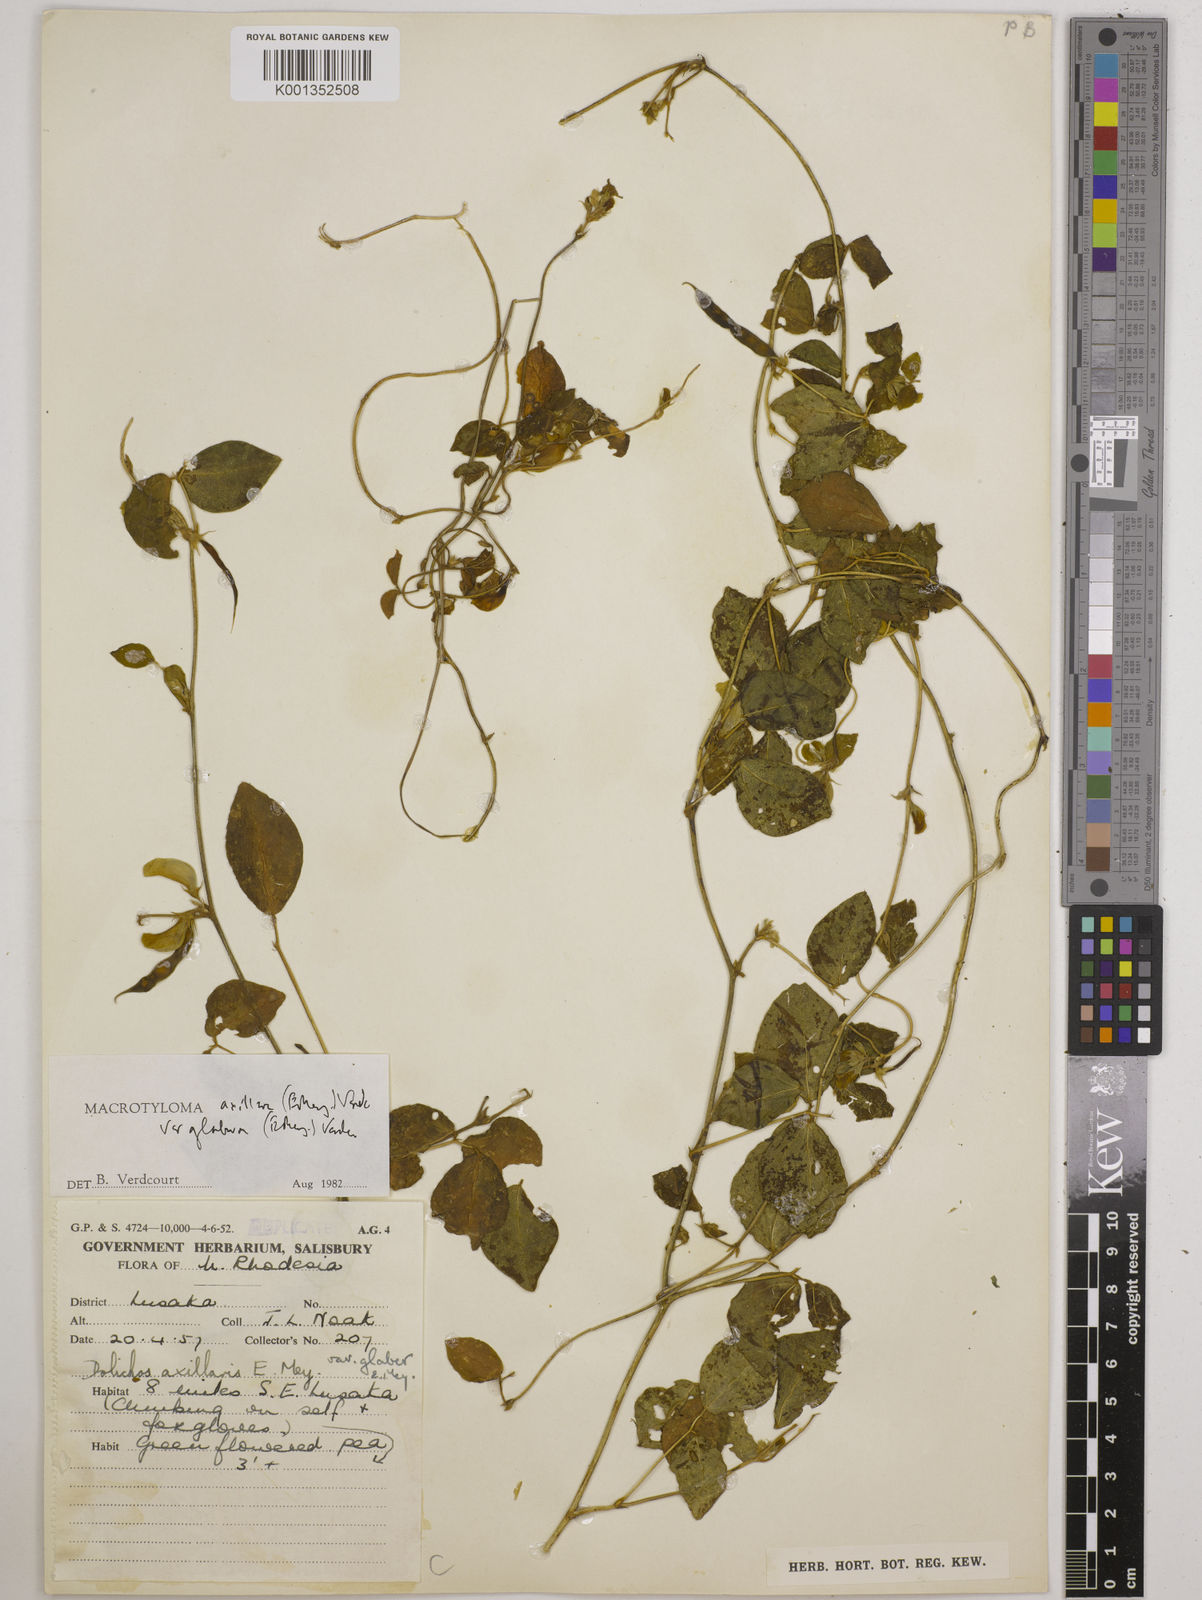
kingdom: Plantae
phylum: Tracheophyta
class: Magnoliopsida
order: Fabales
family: Fabaceae
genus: Macrotyloma
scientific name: Macrotyloma
